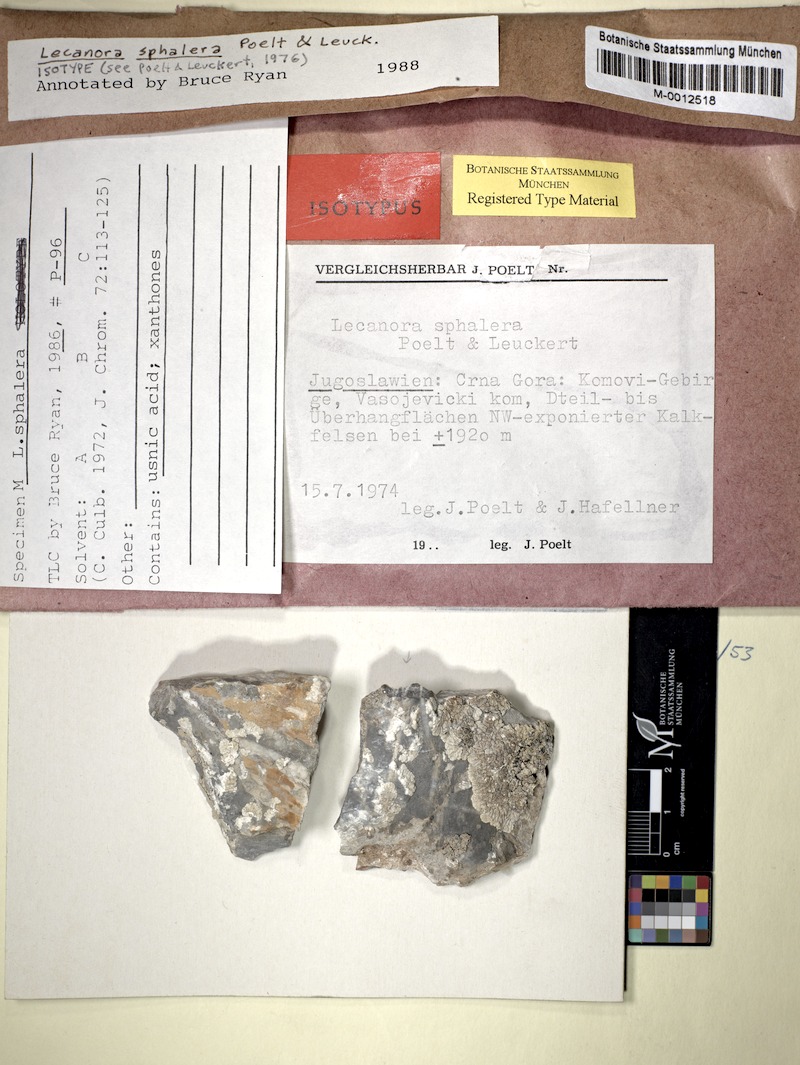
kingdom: Fungi
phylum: Ascomycota
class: Lecanoromycetes
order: Lecanorales
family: Lecanoraceae
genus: Lecanora
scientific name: Lecanora
